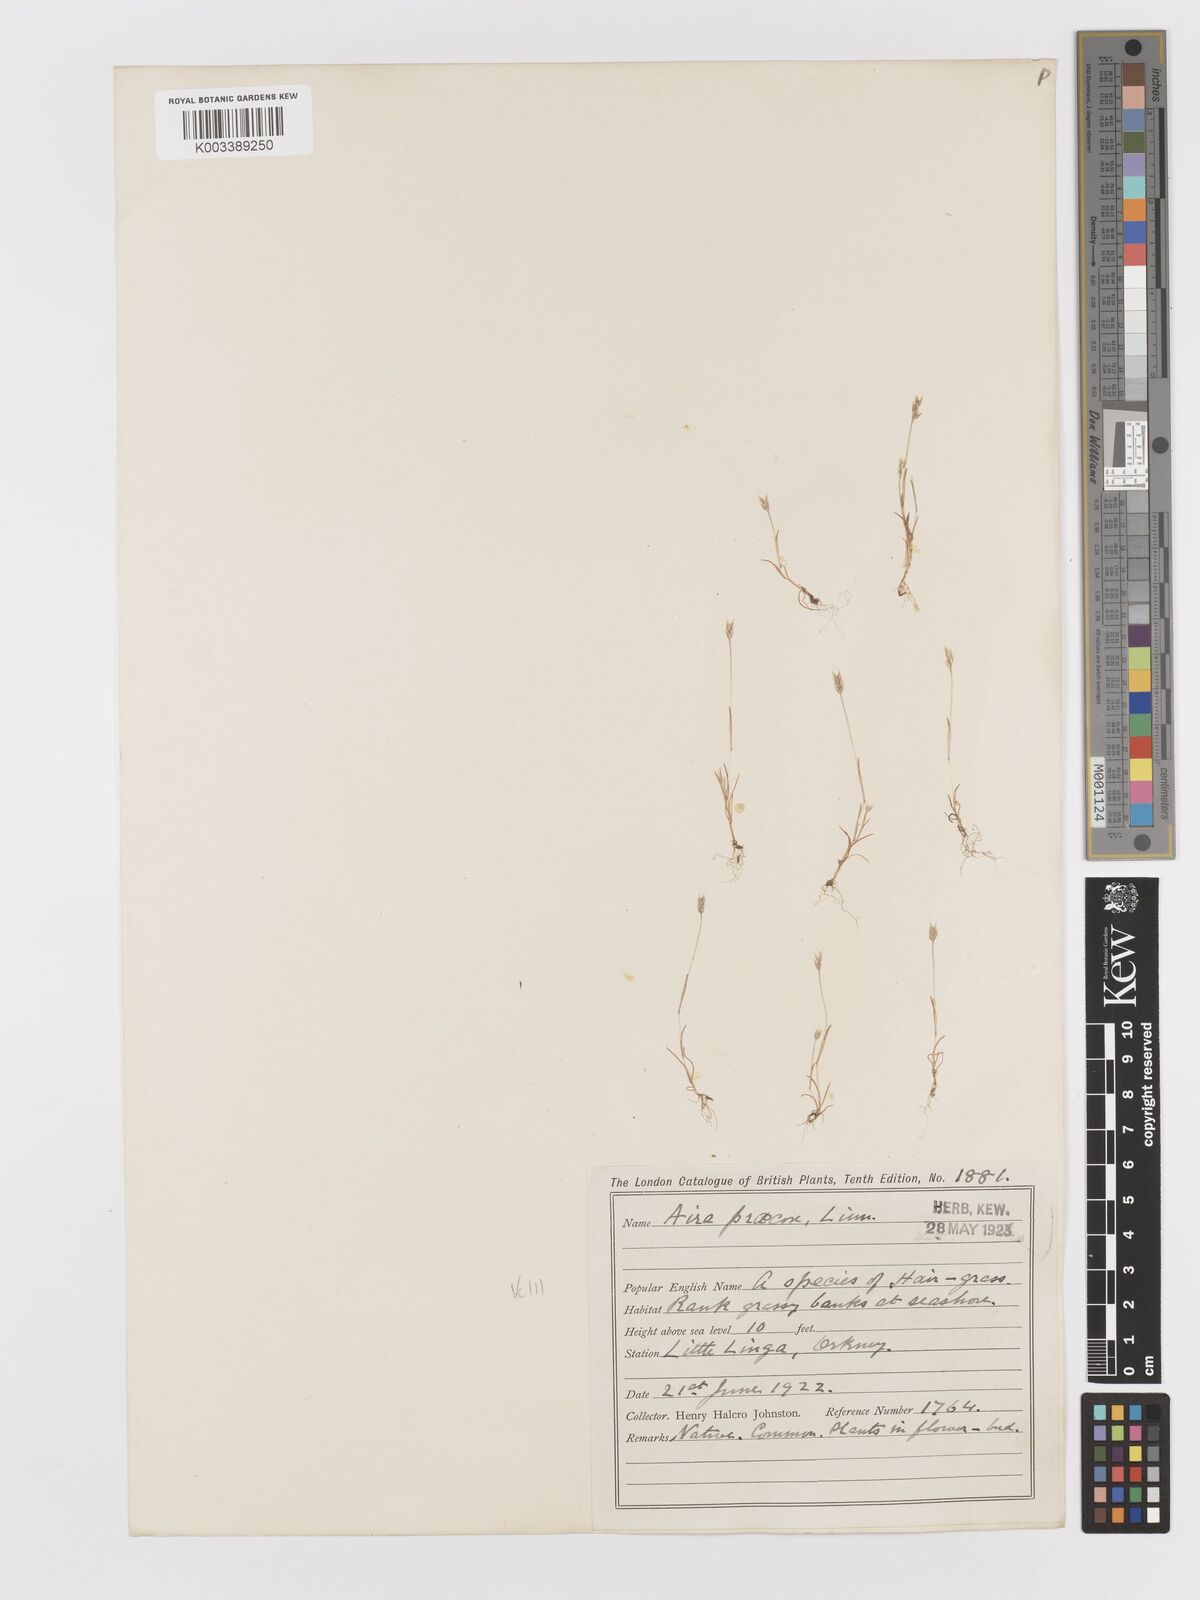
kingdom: Plantae
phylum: Tracheophyta
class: Liliopsida
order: Poales
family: Poaceae
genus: Aira
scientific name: Aira praecox
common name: Early hair-grass
